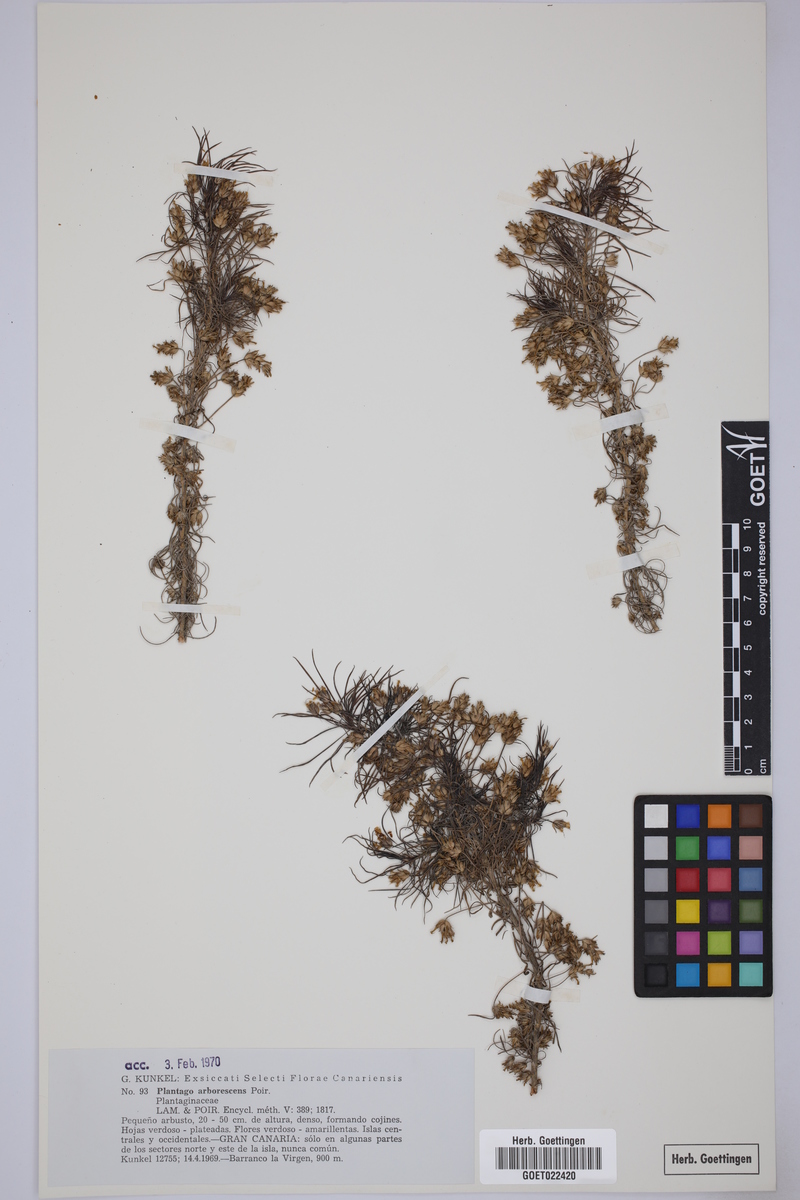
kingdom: Plantae
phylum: Tracheophyta
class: Magnoliopsida
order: Lamiales
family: Plantaginaceae
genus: Plantago
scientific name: Plantago arborescens
